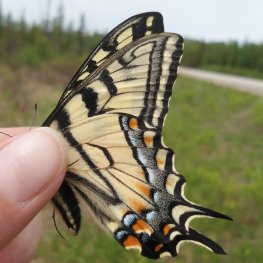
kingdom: Animalia
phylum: Arthropoda
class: Insecta
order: Lepidoptera
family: Papilionidae
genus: Pterourus
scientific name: Pterourus canadensis
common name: Canadian Tiger Swallowtail
